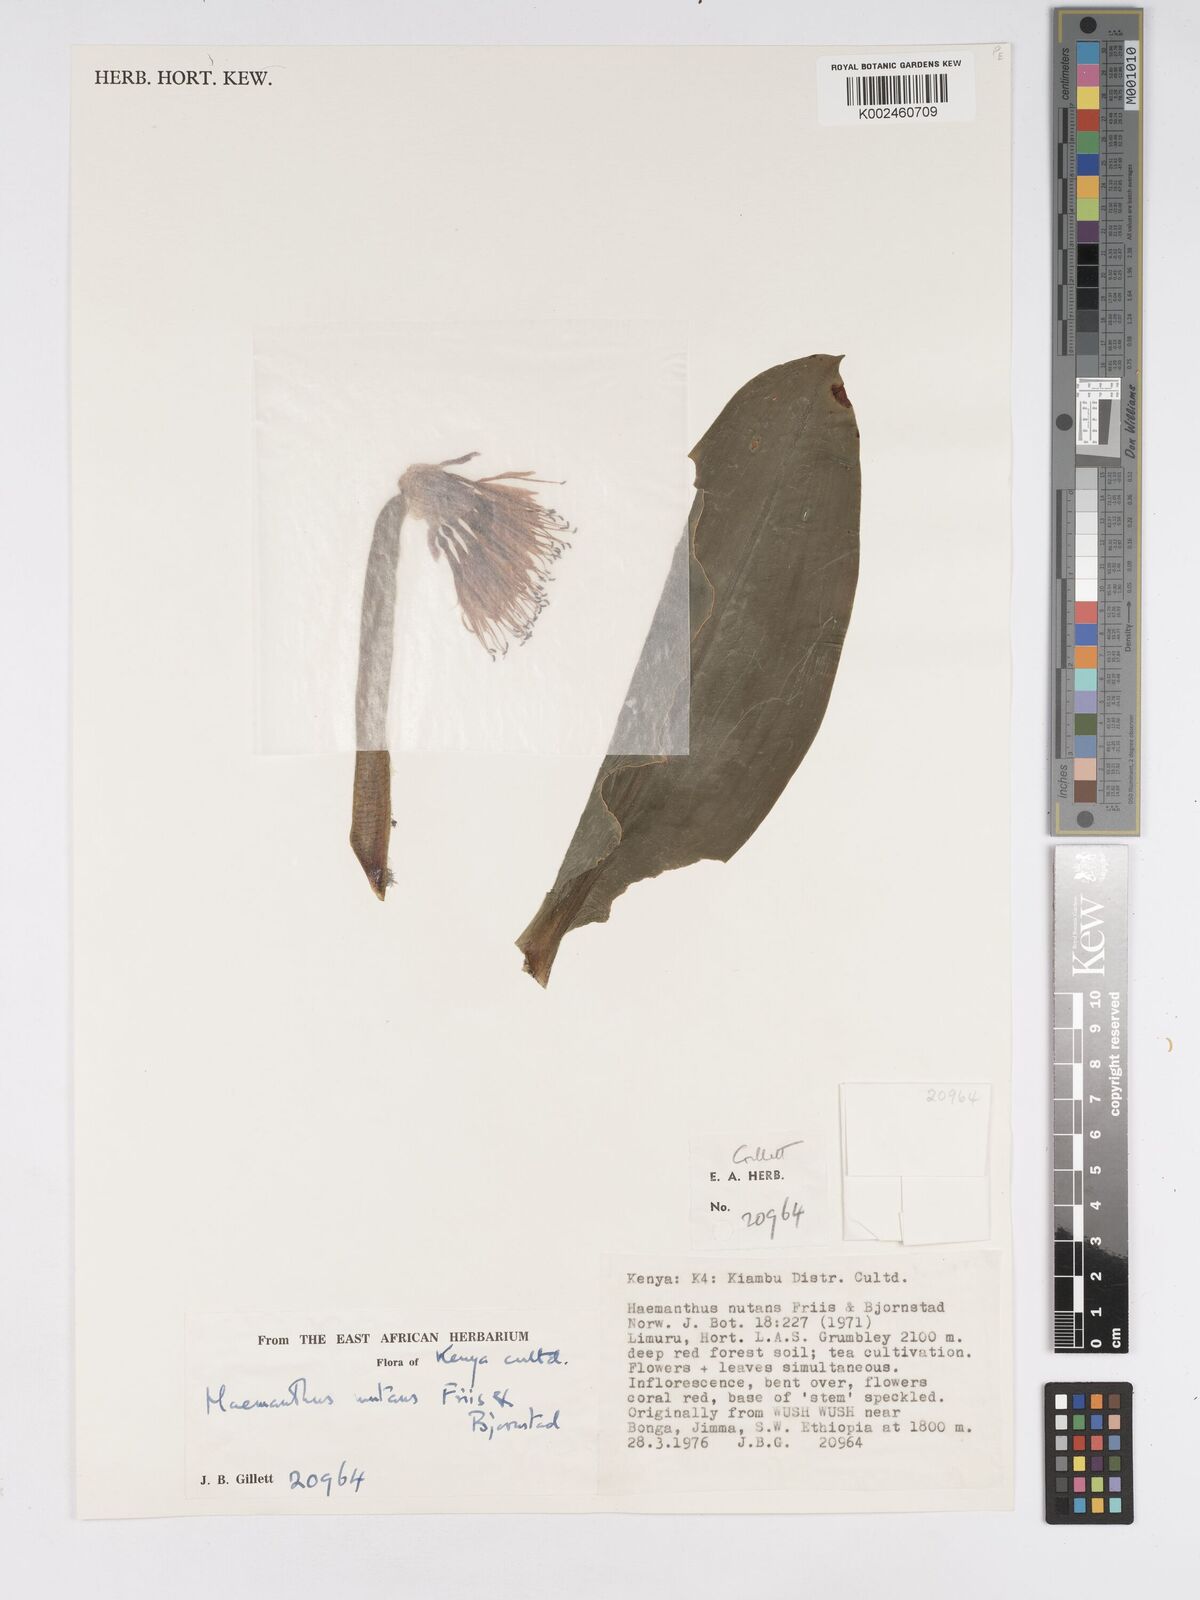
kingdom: Plantae
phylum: Tracheophyta
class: Liliopsida
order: Asparagales
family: Amaryllidaceae
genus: Scadoxus
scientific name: Scadoxus nutans
